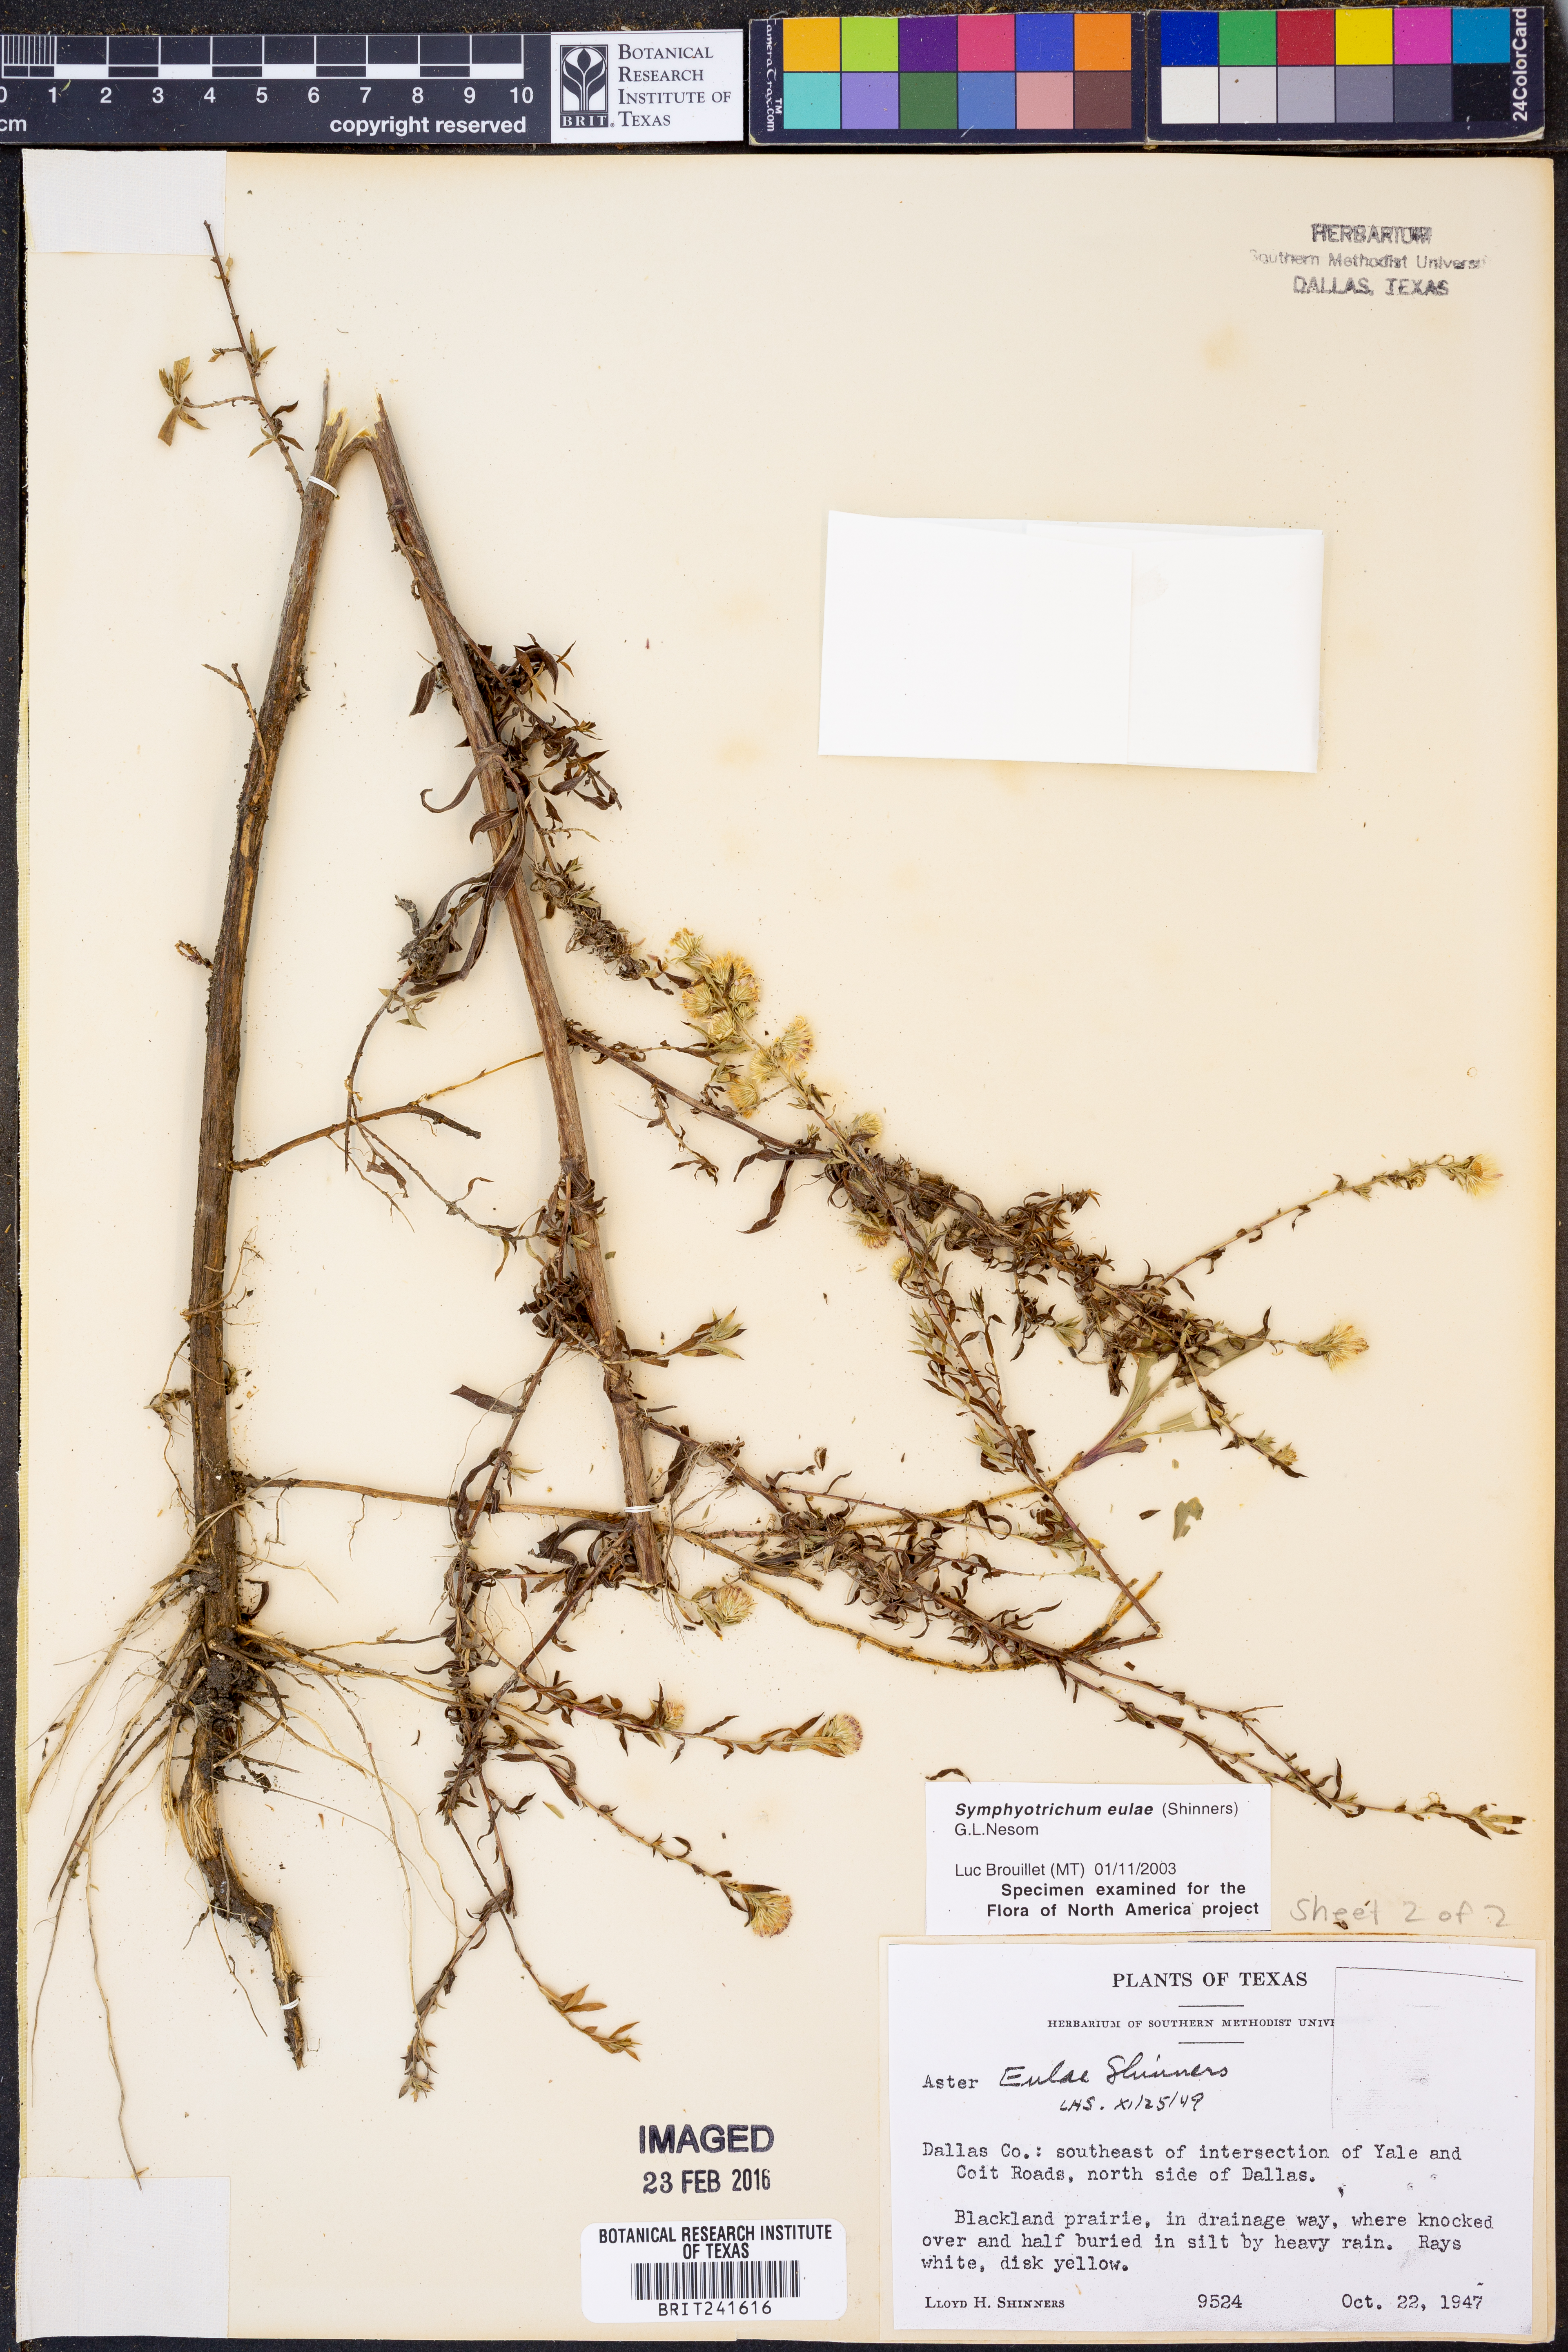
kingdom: Plantae
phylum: Tracheophyta
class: Magnoliopsida
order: Asterales
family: Asteraceae
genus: Symphyotrichum
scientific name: Symphyotrichum eulae
